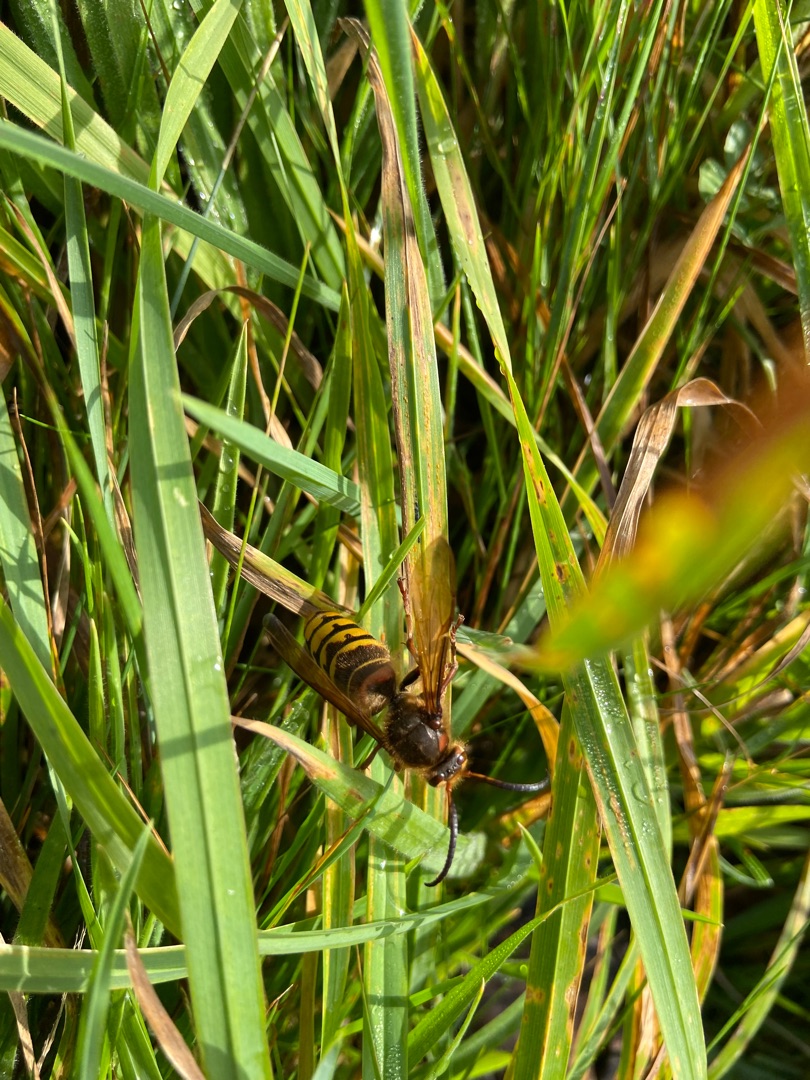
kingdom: Animalia
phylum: Arthropoda
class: Insecta
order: Hymenoptera
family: Vespidae
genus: Vespa
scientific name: Vespa crabro
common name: Stor gedehams
